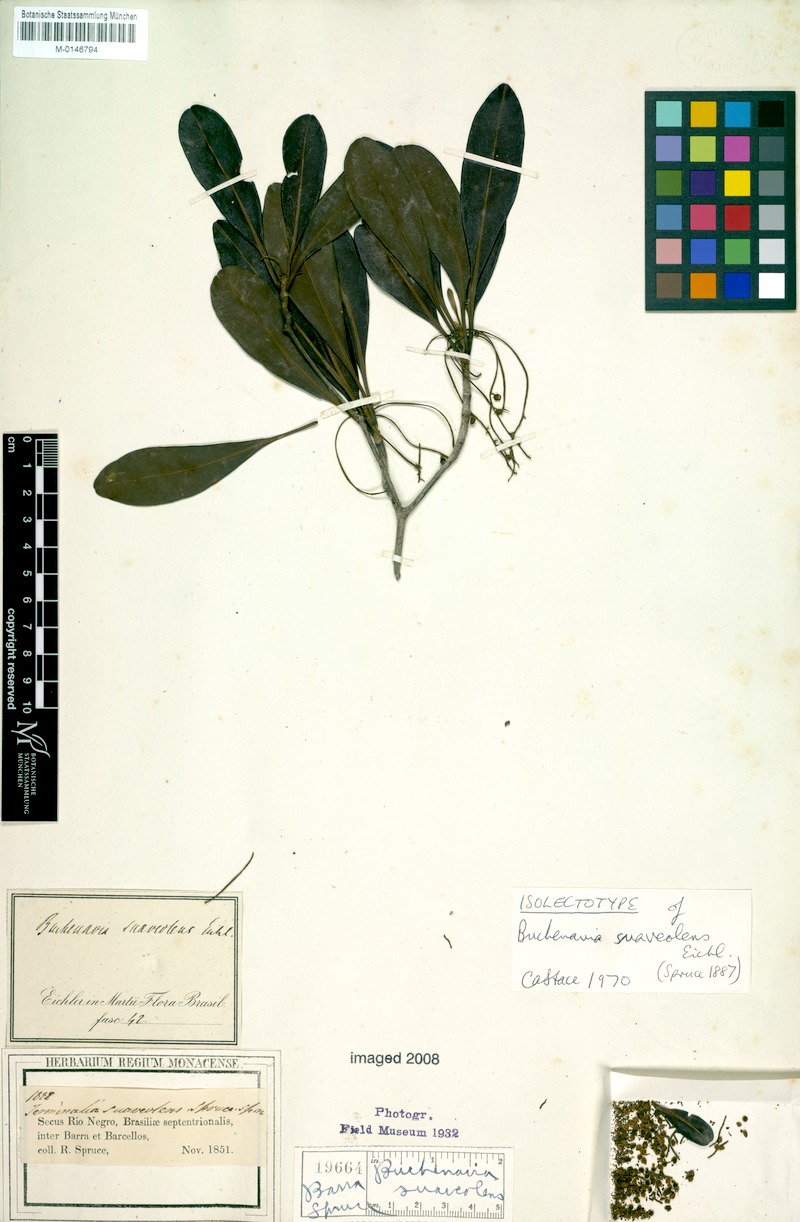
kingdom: Plantae
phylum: Tracheophyta
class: Magnoliopsida
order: Myrtales
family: Combretaceae
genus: Terminalia
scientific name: Terminalia suaveolens
